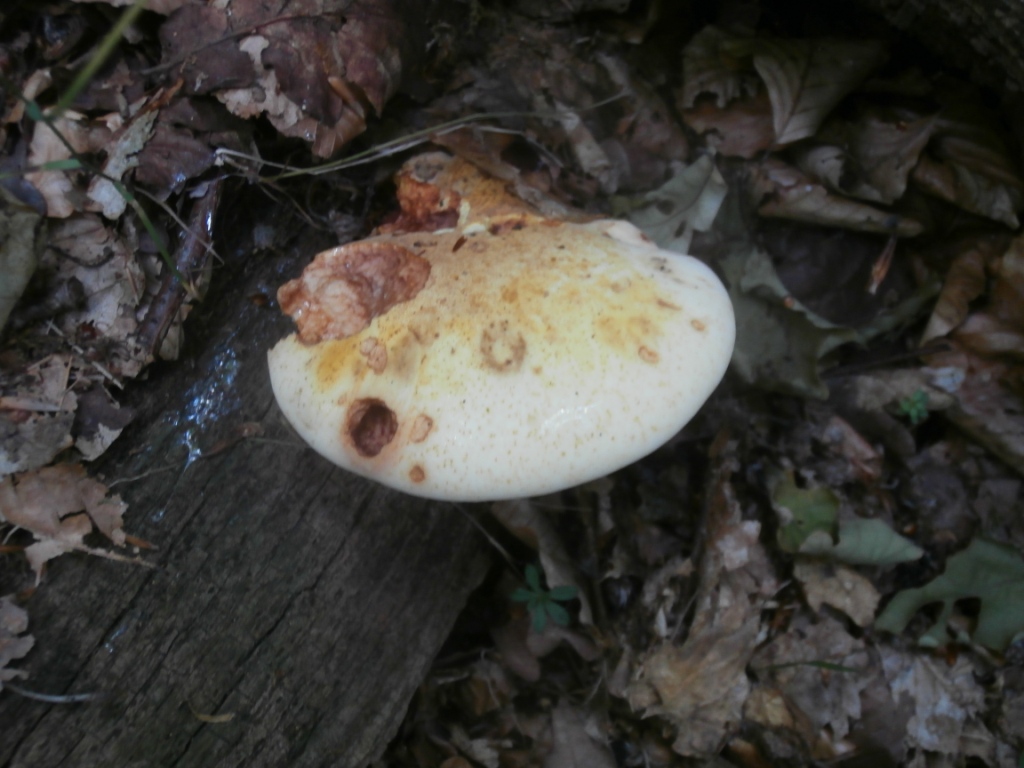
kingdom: Fungi
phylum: Basidiomycota
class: Agaricomycetes
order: Polyporales
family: Fomitopsidaceae
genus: Buglossoporus
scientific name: Buglossoporus quercinus
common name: egetunge
